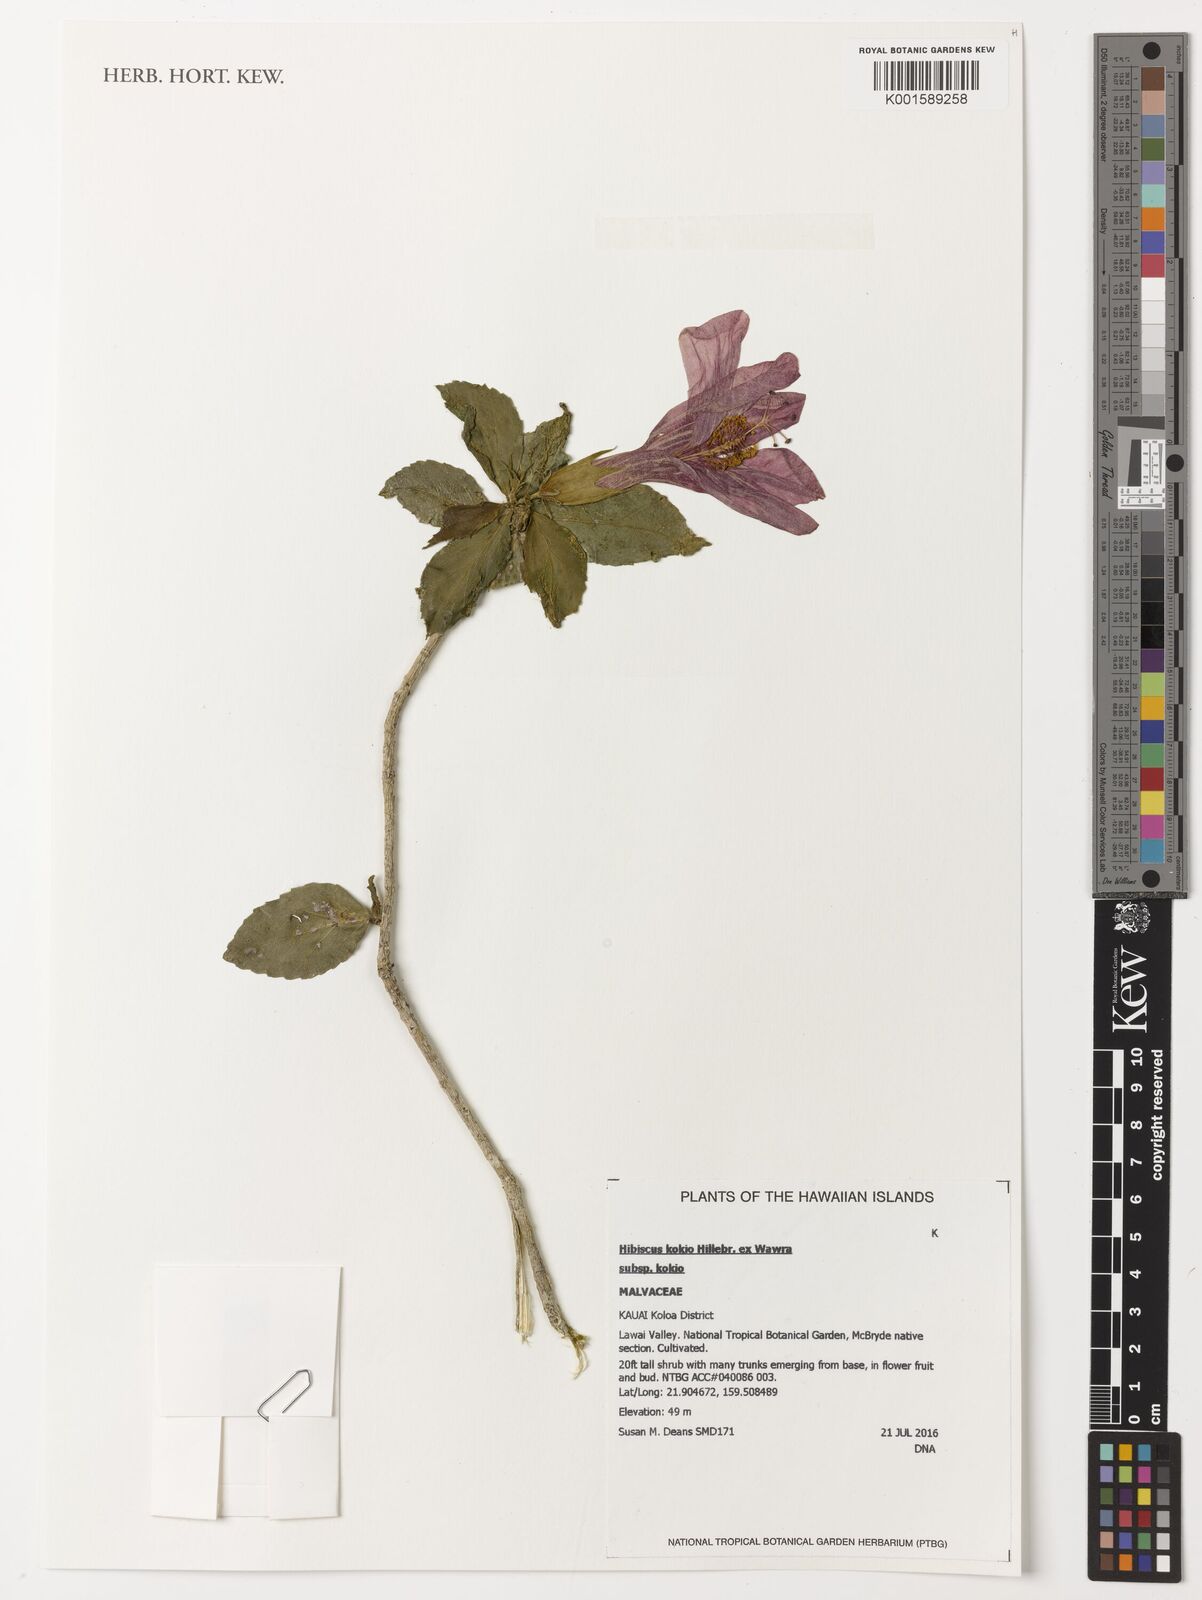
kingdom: Plantae
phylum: Tracheophyta
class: Magnoliopsida
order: Malvales
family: Malvaceae
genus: Hibiscus
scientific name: Hibiscus kokio
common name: Saint john's rosemallow
